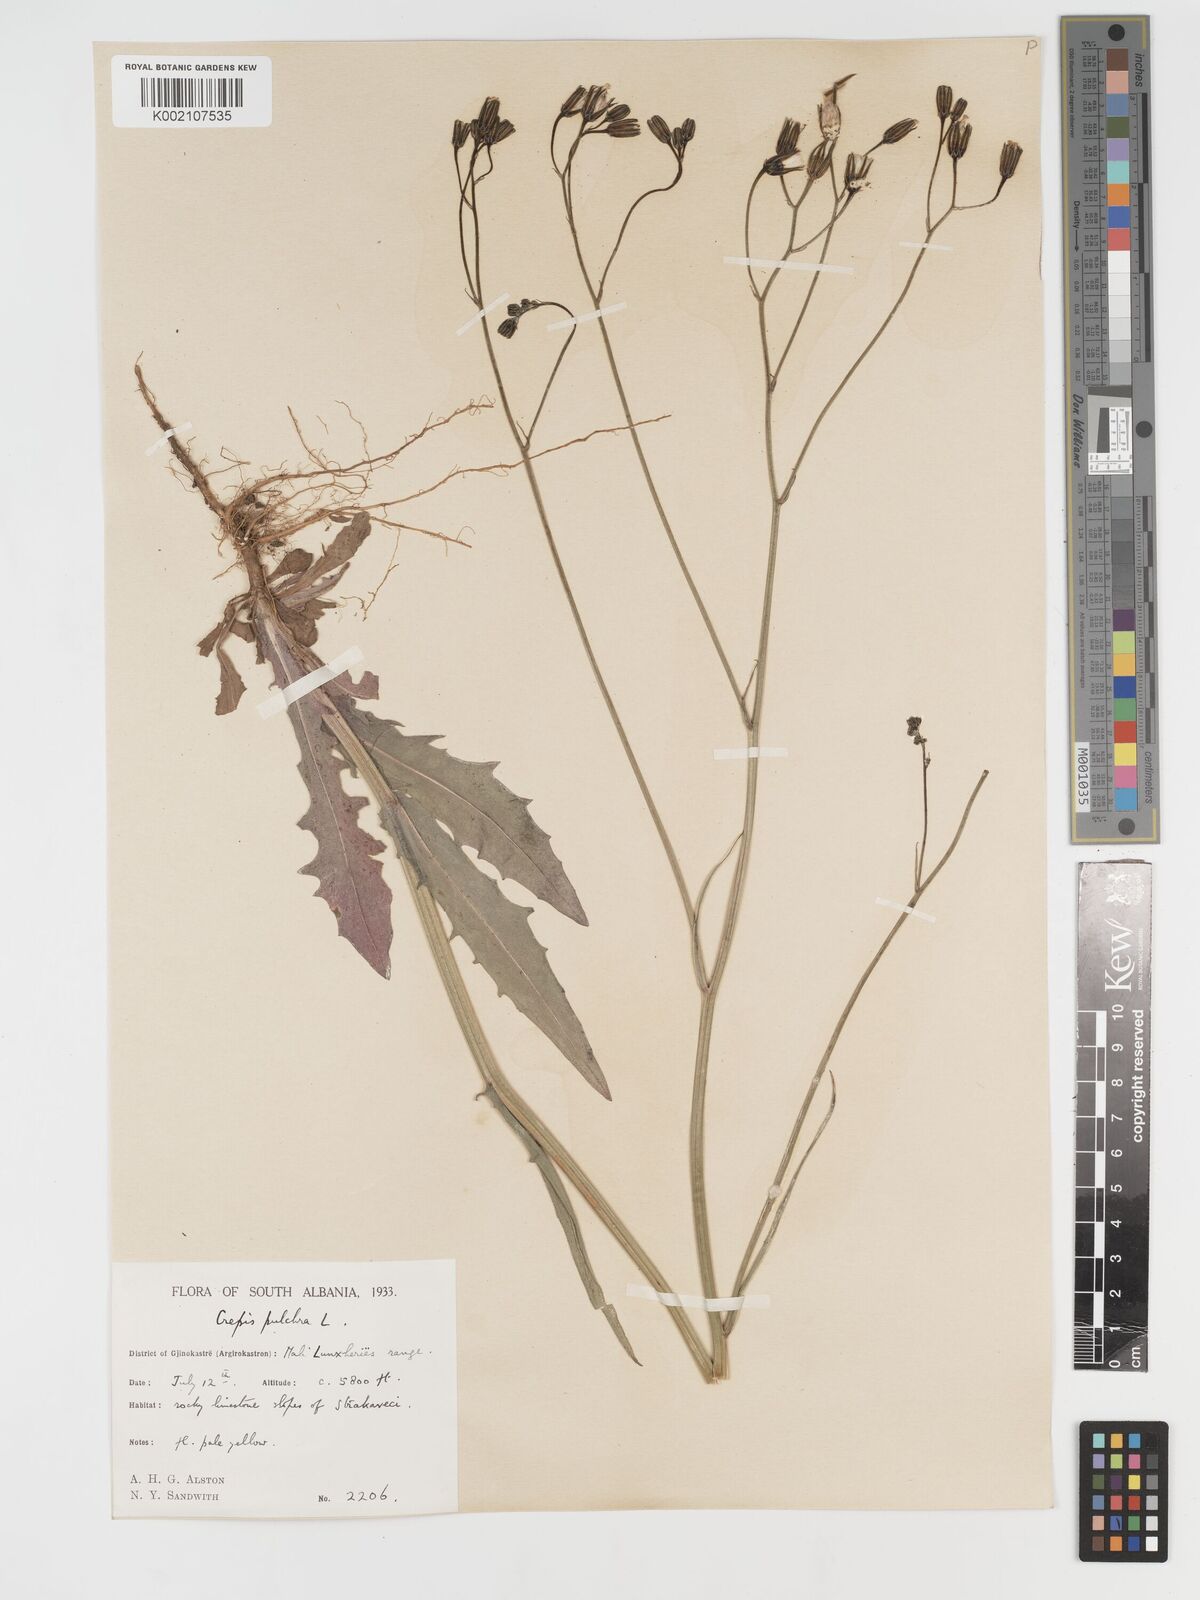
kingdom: Plantae
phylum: Tracheophyta
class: Magnoliopsida
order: Asterales
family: Asteraceae
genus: Crepis
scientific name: Crepis pulchra
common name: Hawk's-beard
